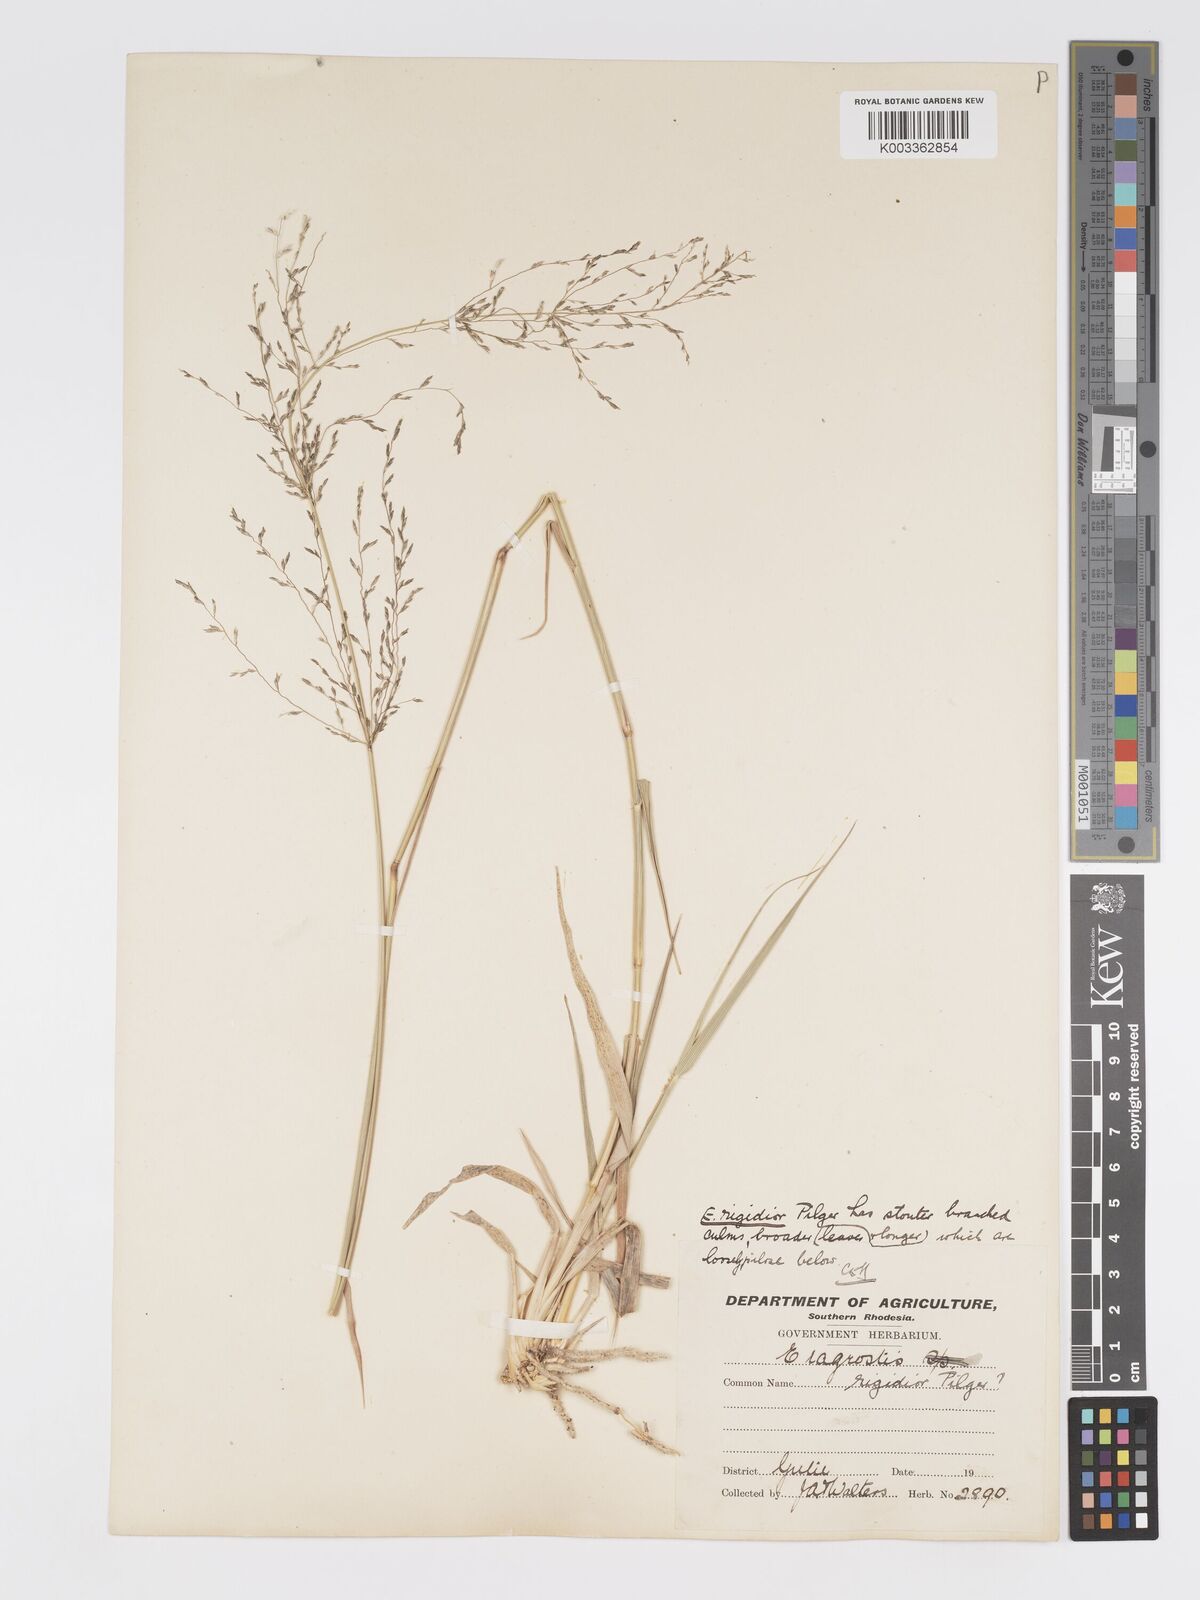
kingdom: Plantae
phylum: Tracheophyta
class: Liliopsida
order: Poales
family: Poaceae
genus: Eragrostis
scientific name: Eragrostis cylindriflora
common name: Cylinderflower lovegrass
